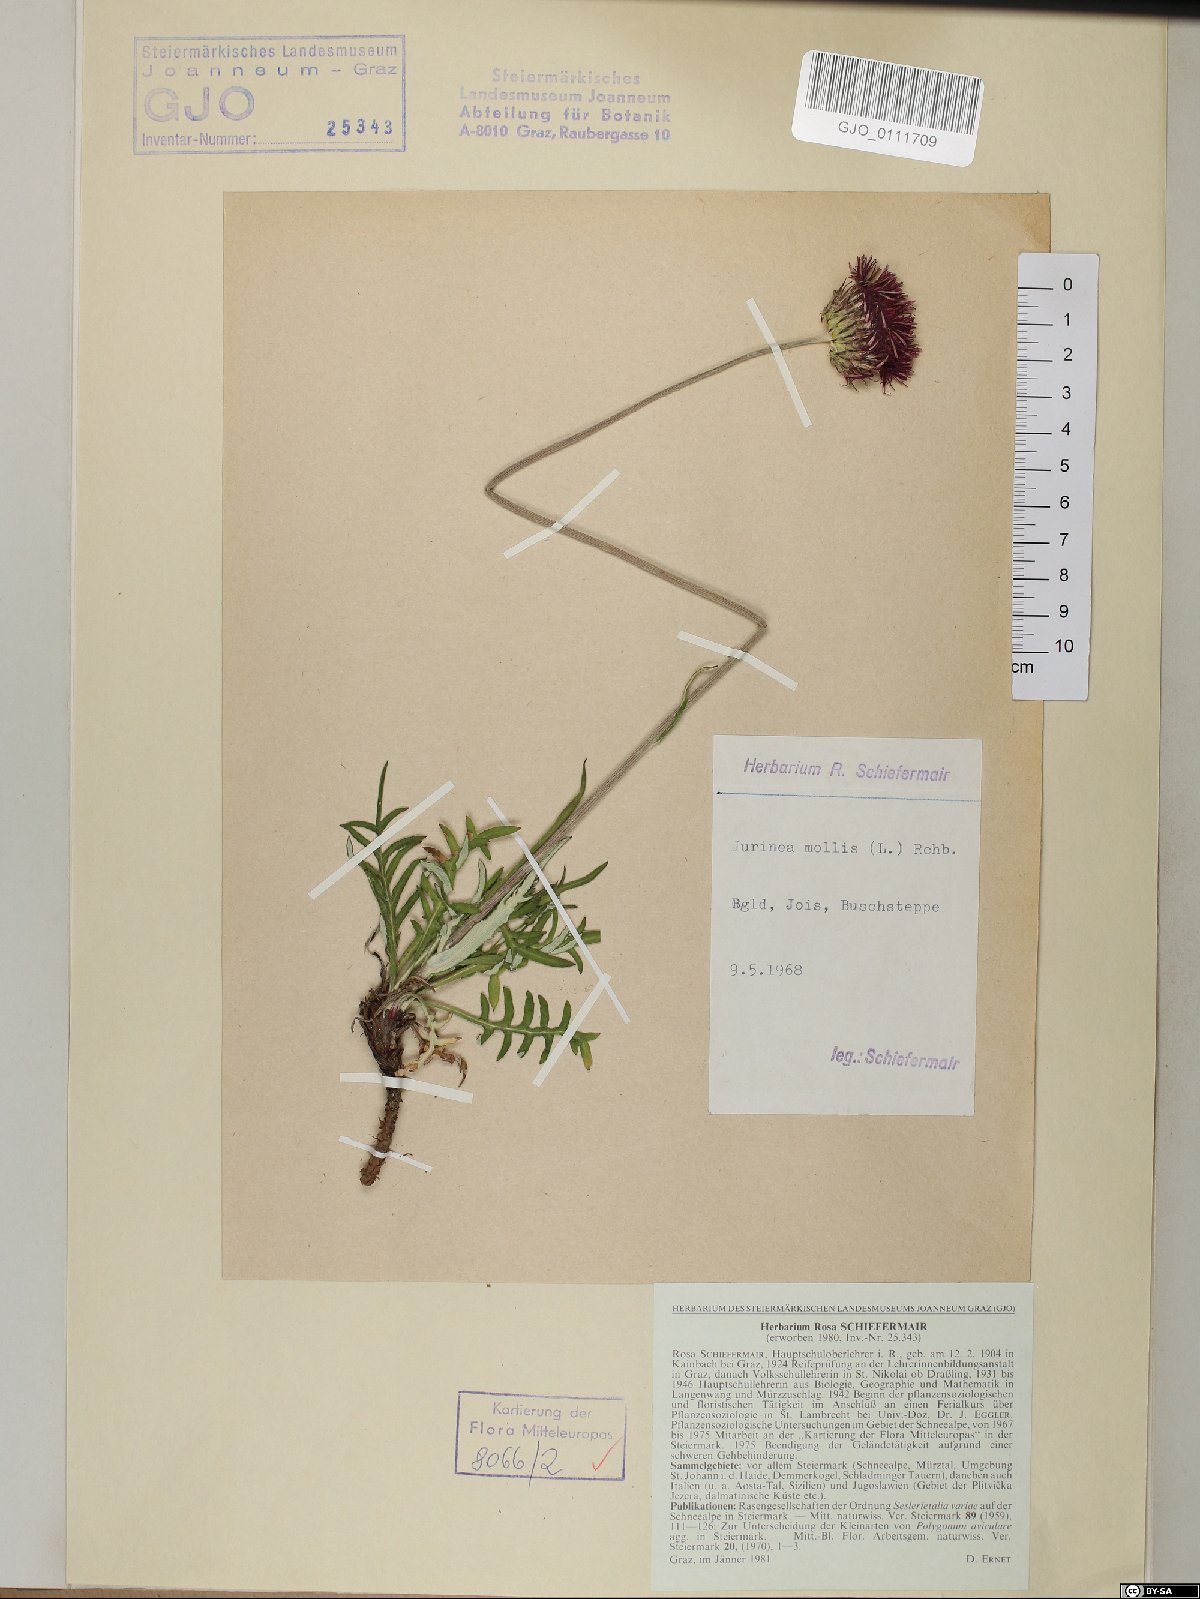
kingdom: Plantae
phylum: Tracheophyta
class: Magnoliopsida
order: Asterales
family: Asteraceae
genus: Jurinea
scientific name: Jurinea mollis
